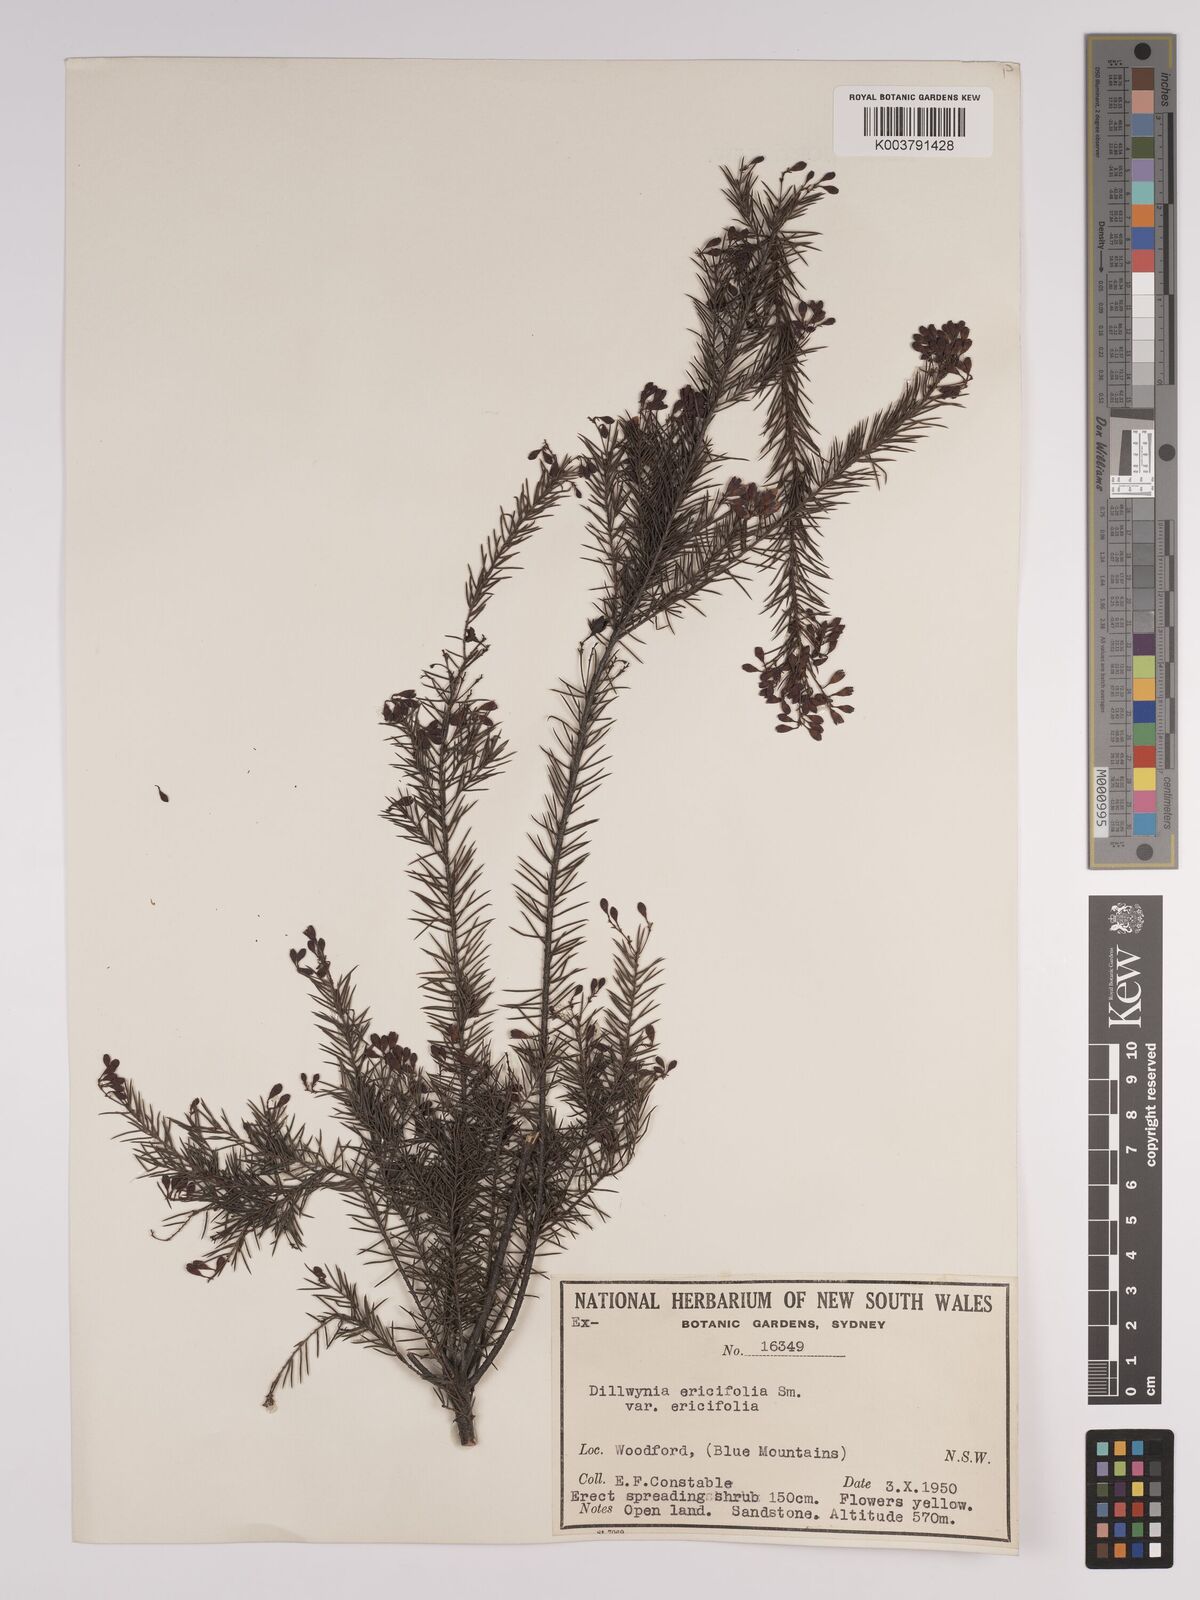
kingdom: Plantae
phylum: Tracheophyta
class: Magnoliopsida
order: Fabales
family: Fabaceae
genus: Dillwynia
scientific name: Dillwynia retorta
